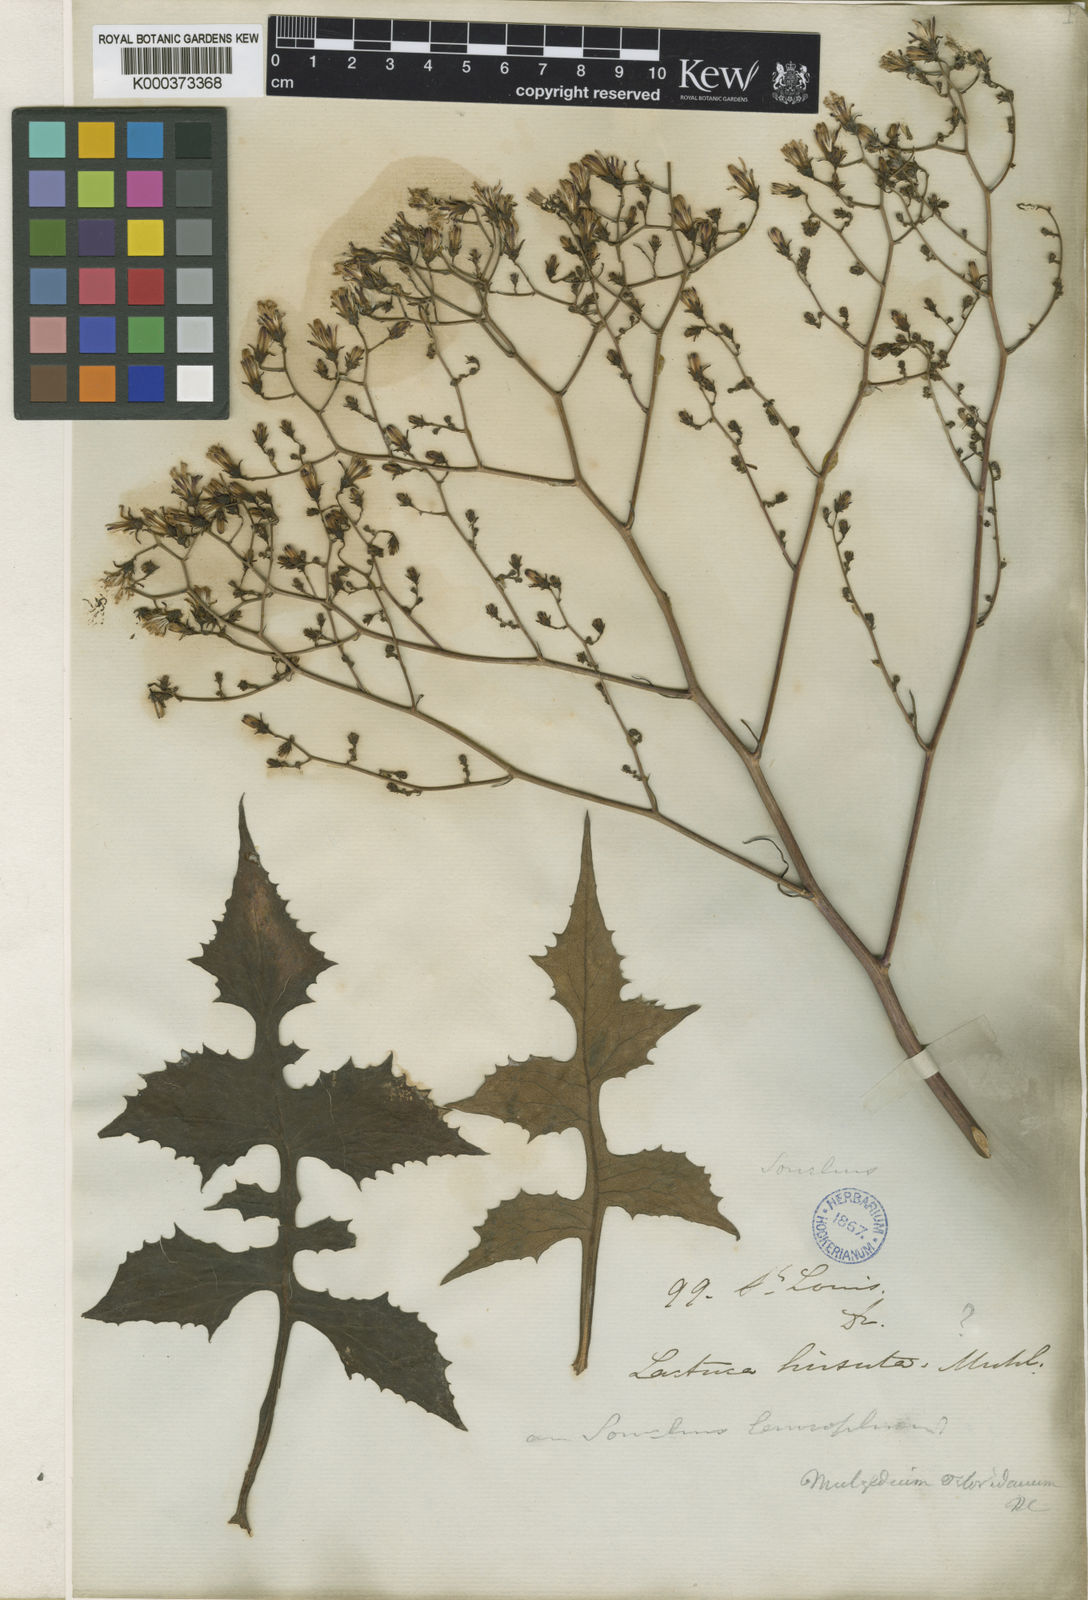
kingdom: Plantae
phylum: Tracheophyta
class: Magnoliopsida
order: Asterales
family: Asteraceae
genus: Lactuca
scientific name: Lactuca floridana
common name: Woodland lettuce
